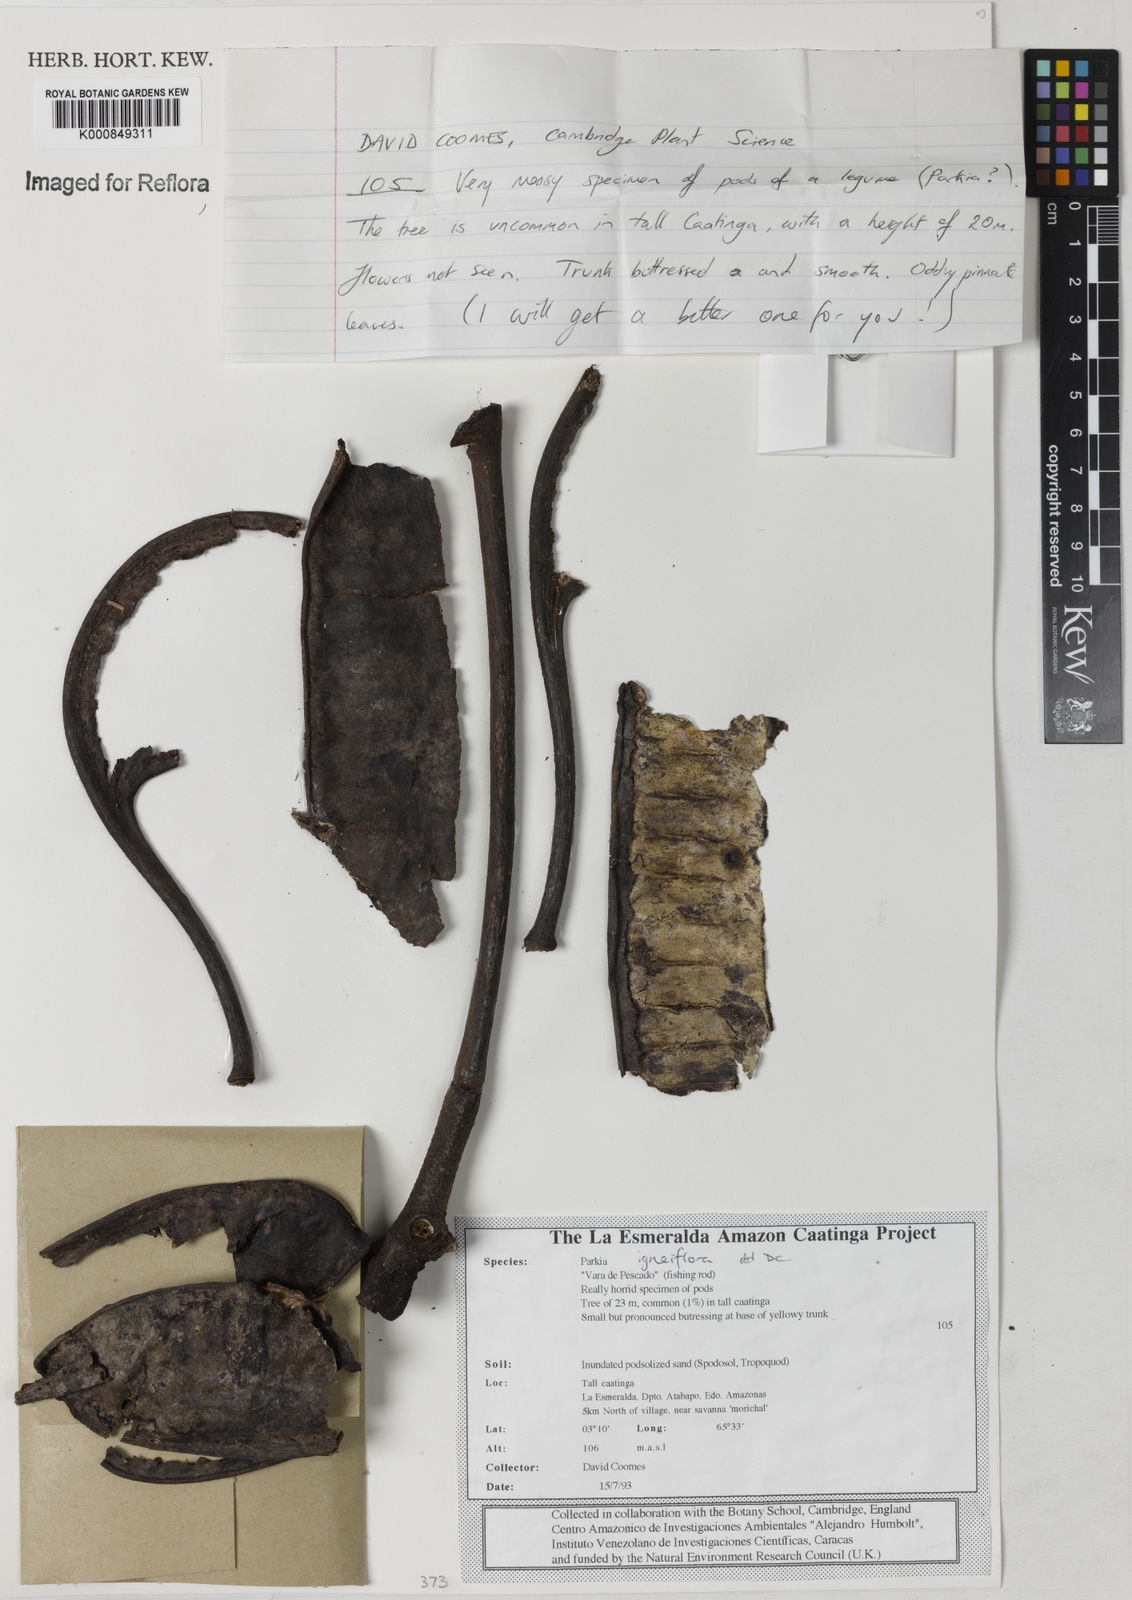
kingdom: Plantae
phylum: Tracheophyta
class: Magnoliopsida
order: Fabales
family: Fabaceae
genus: Parkia
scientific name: Parkia igneiflora
